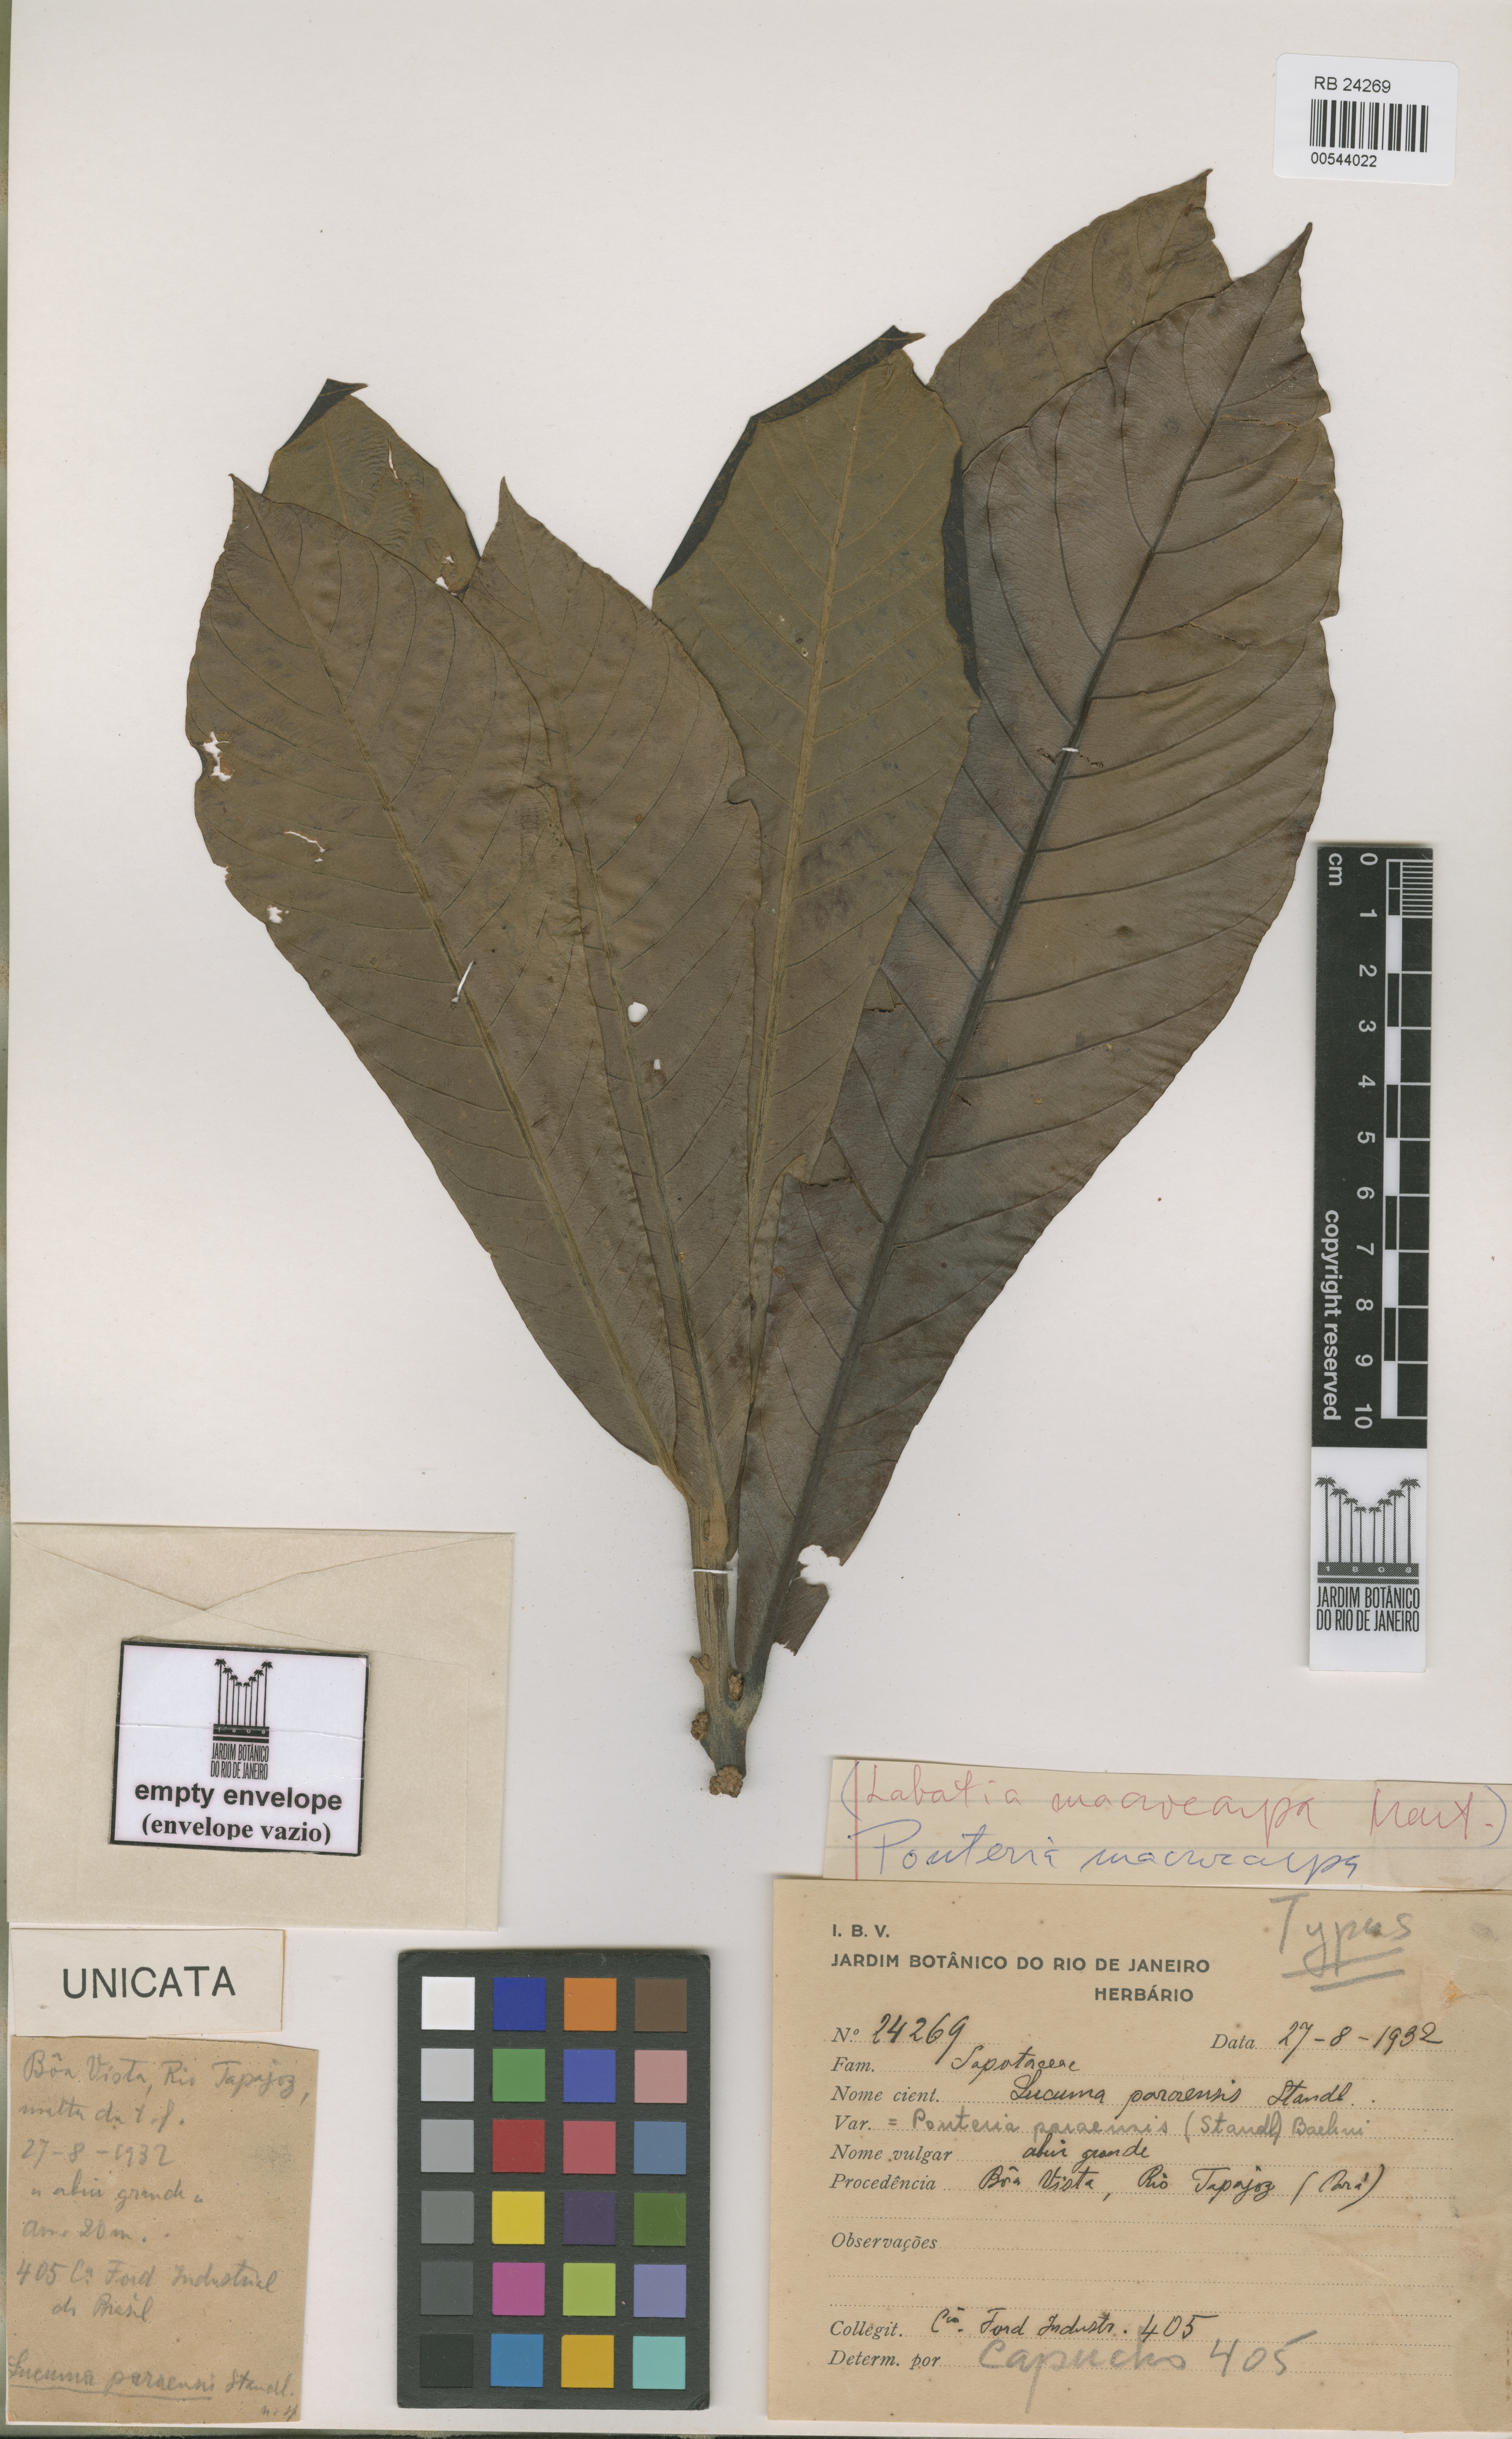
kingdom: Plantae
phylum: Tracheophyta
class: Magnoliopsida
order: Ericales
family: Sapotaceae
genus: Pouteria
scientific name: Pouteria macrocarpa
